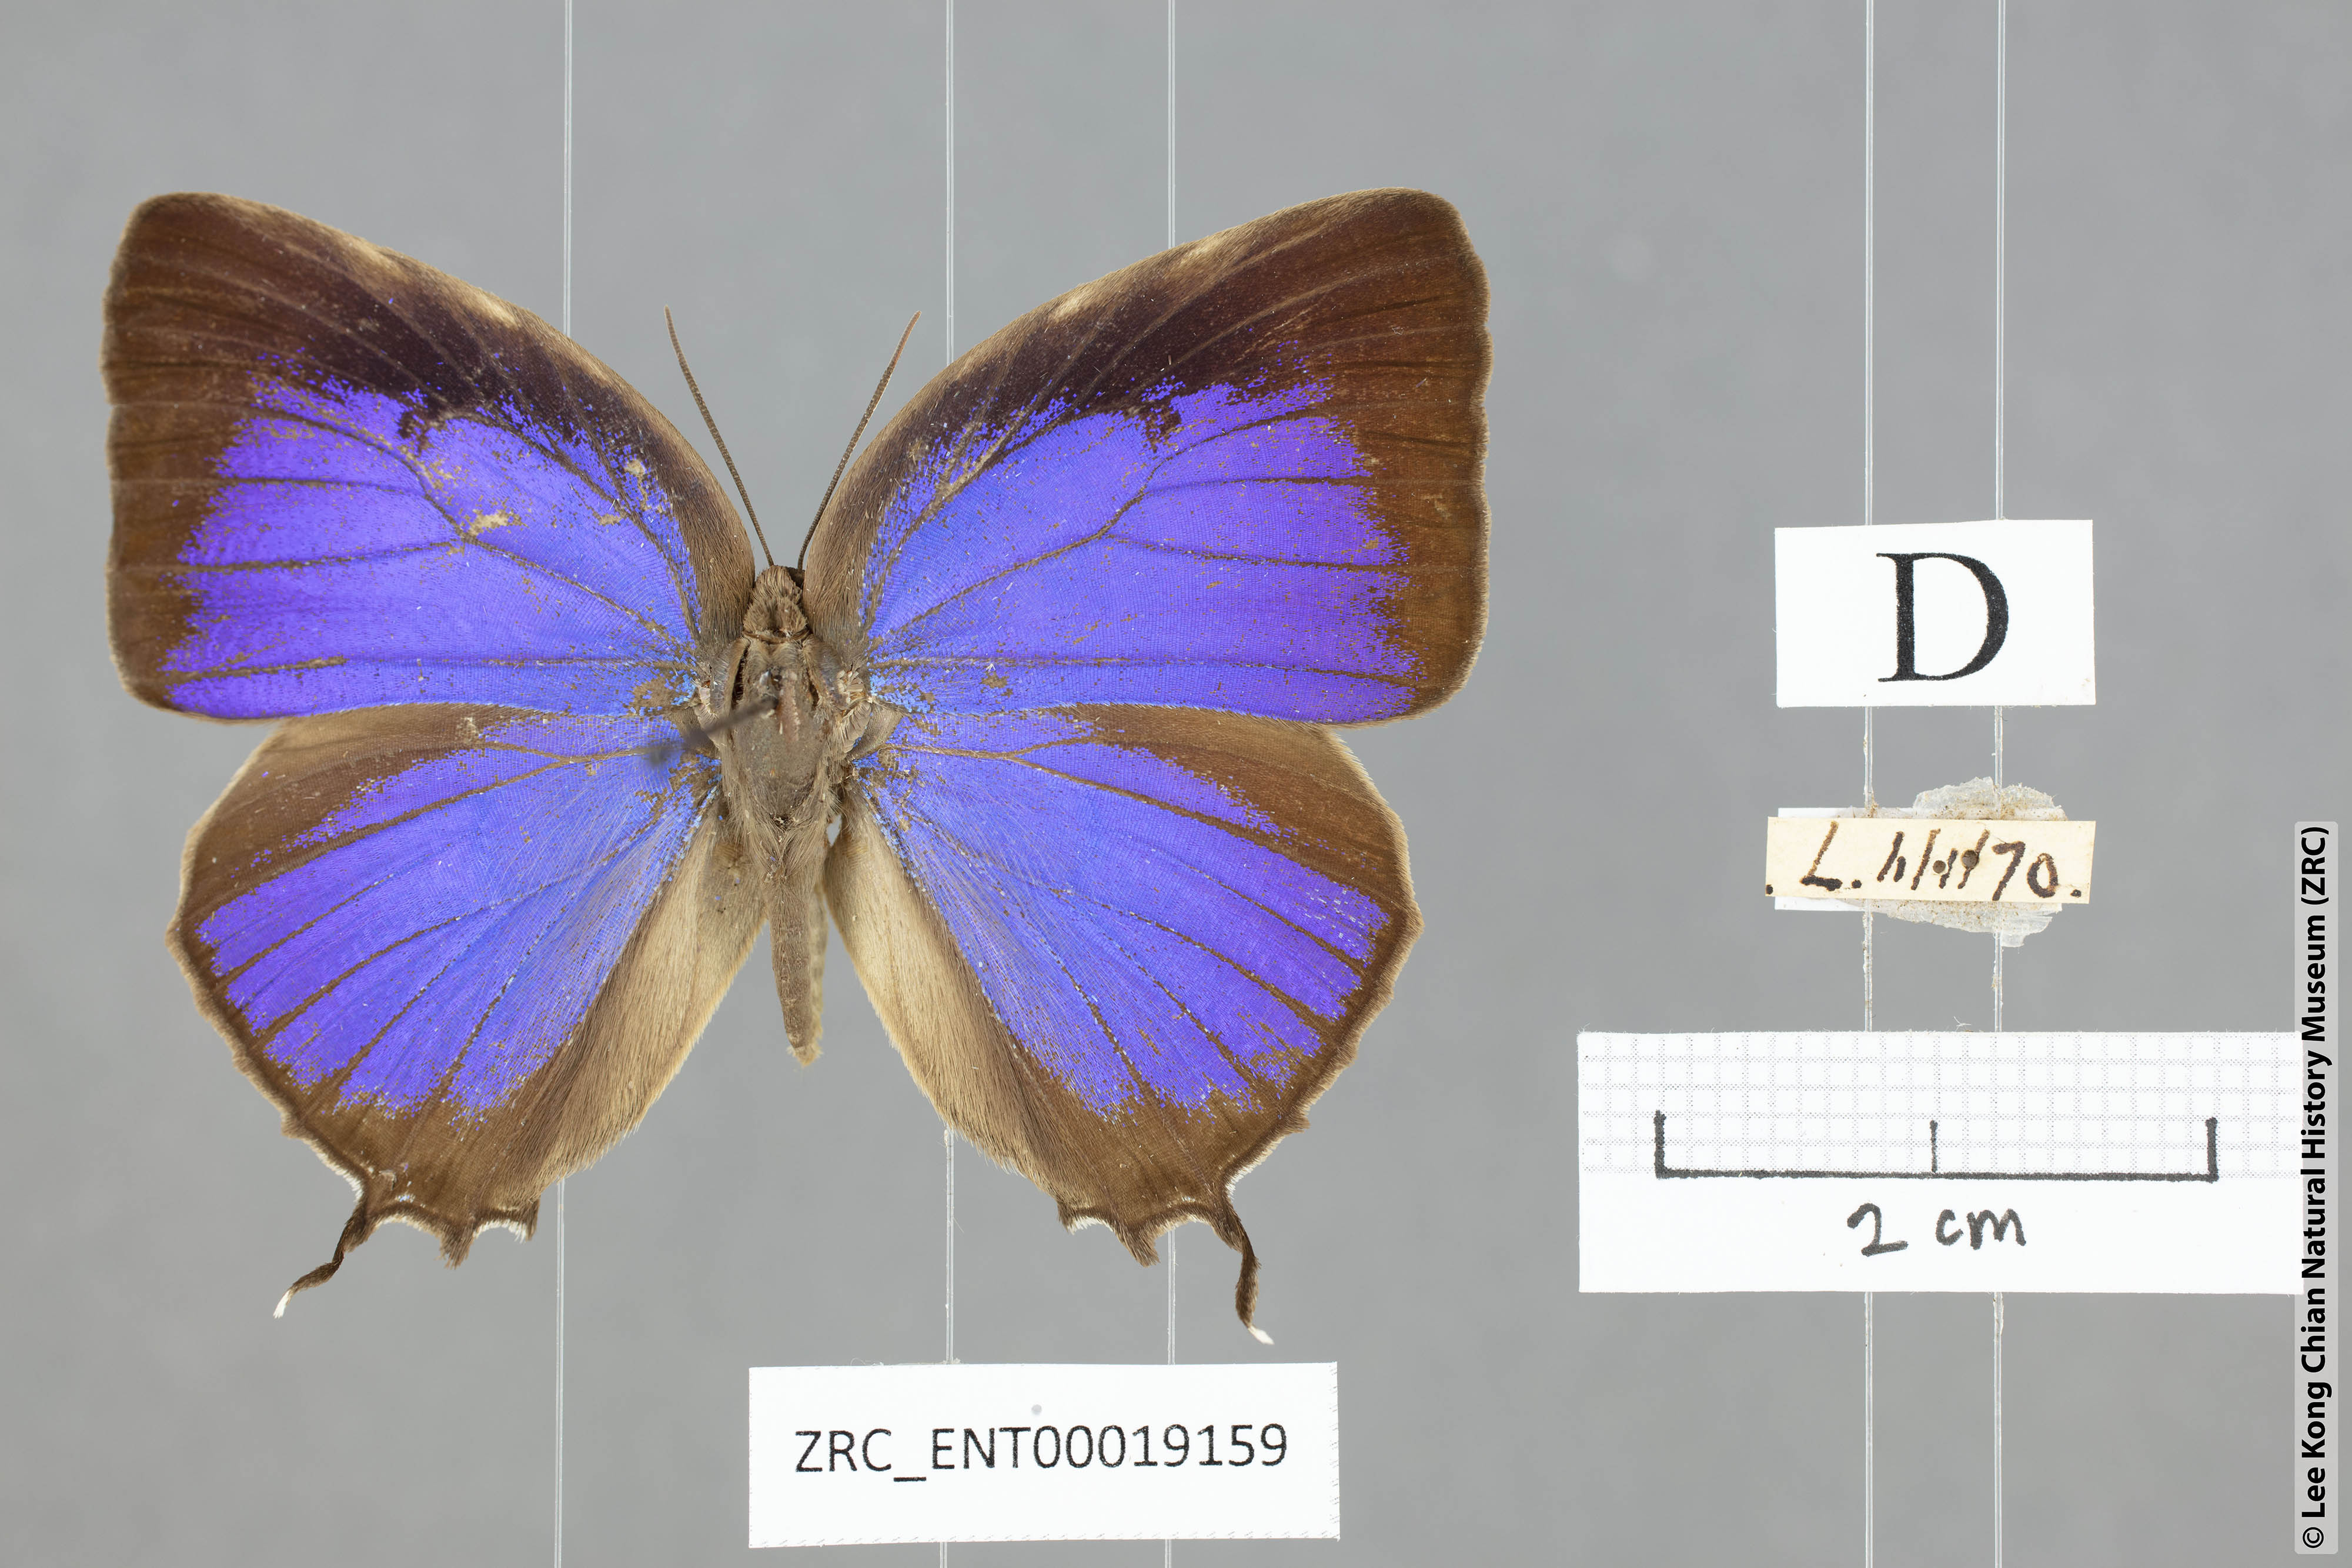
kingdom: Animalia
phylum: Arthropoda
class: Insecta
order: Lepidoptera
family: Lycaenidae
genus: Arhopala
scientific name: Arhopala anthelus
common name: Bushblue
